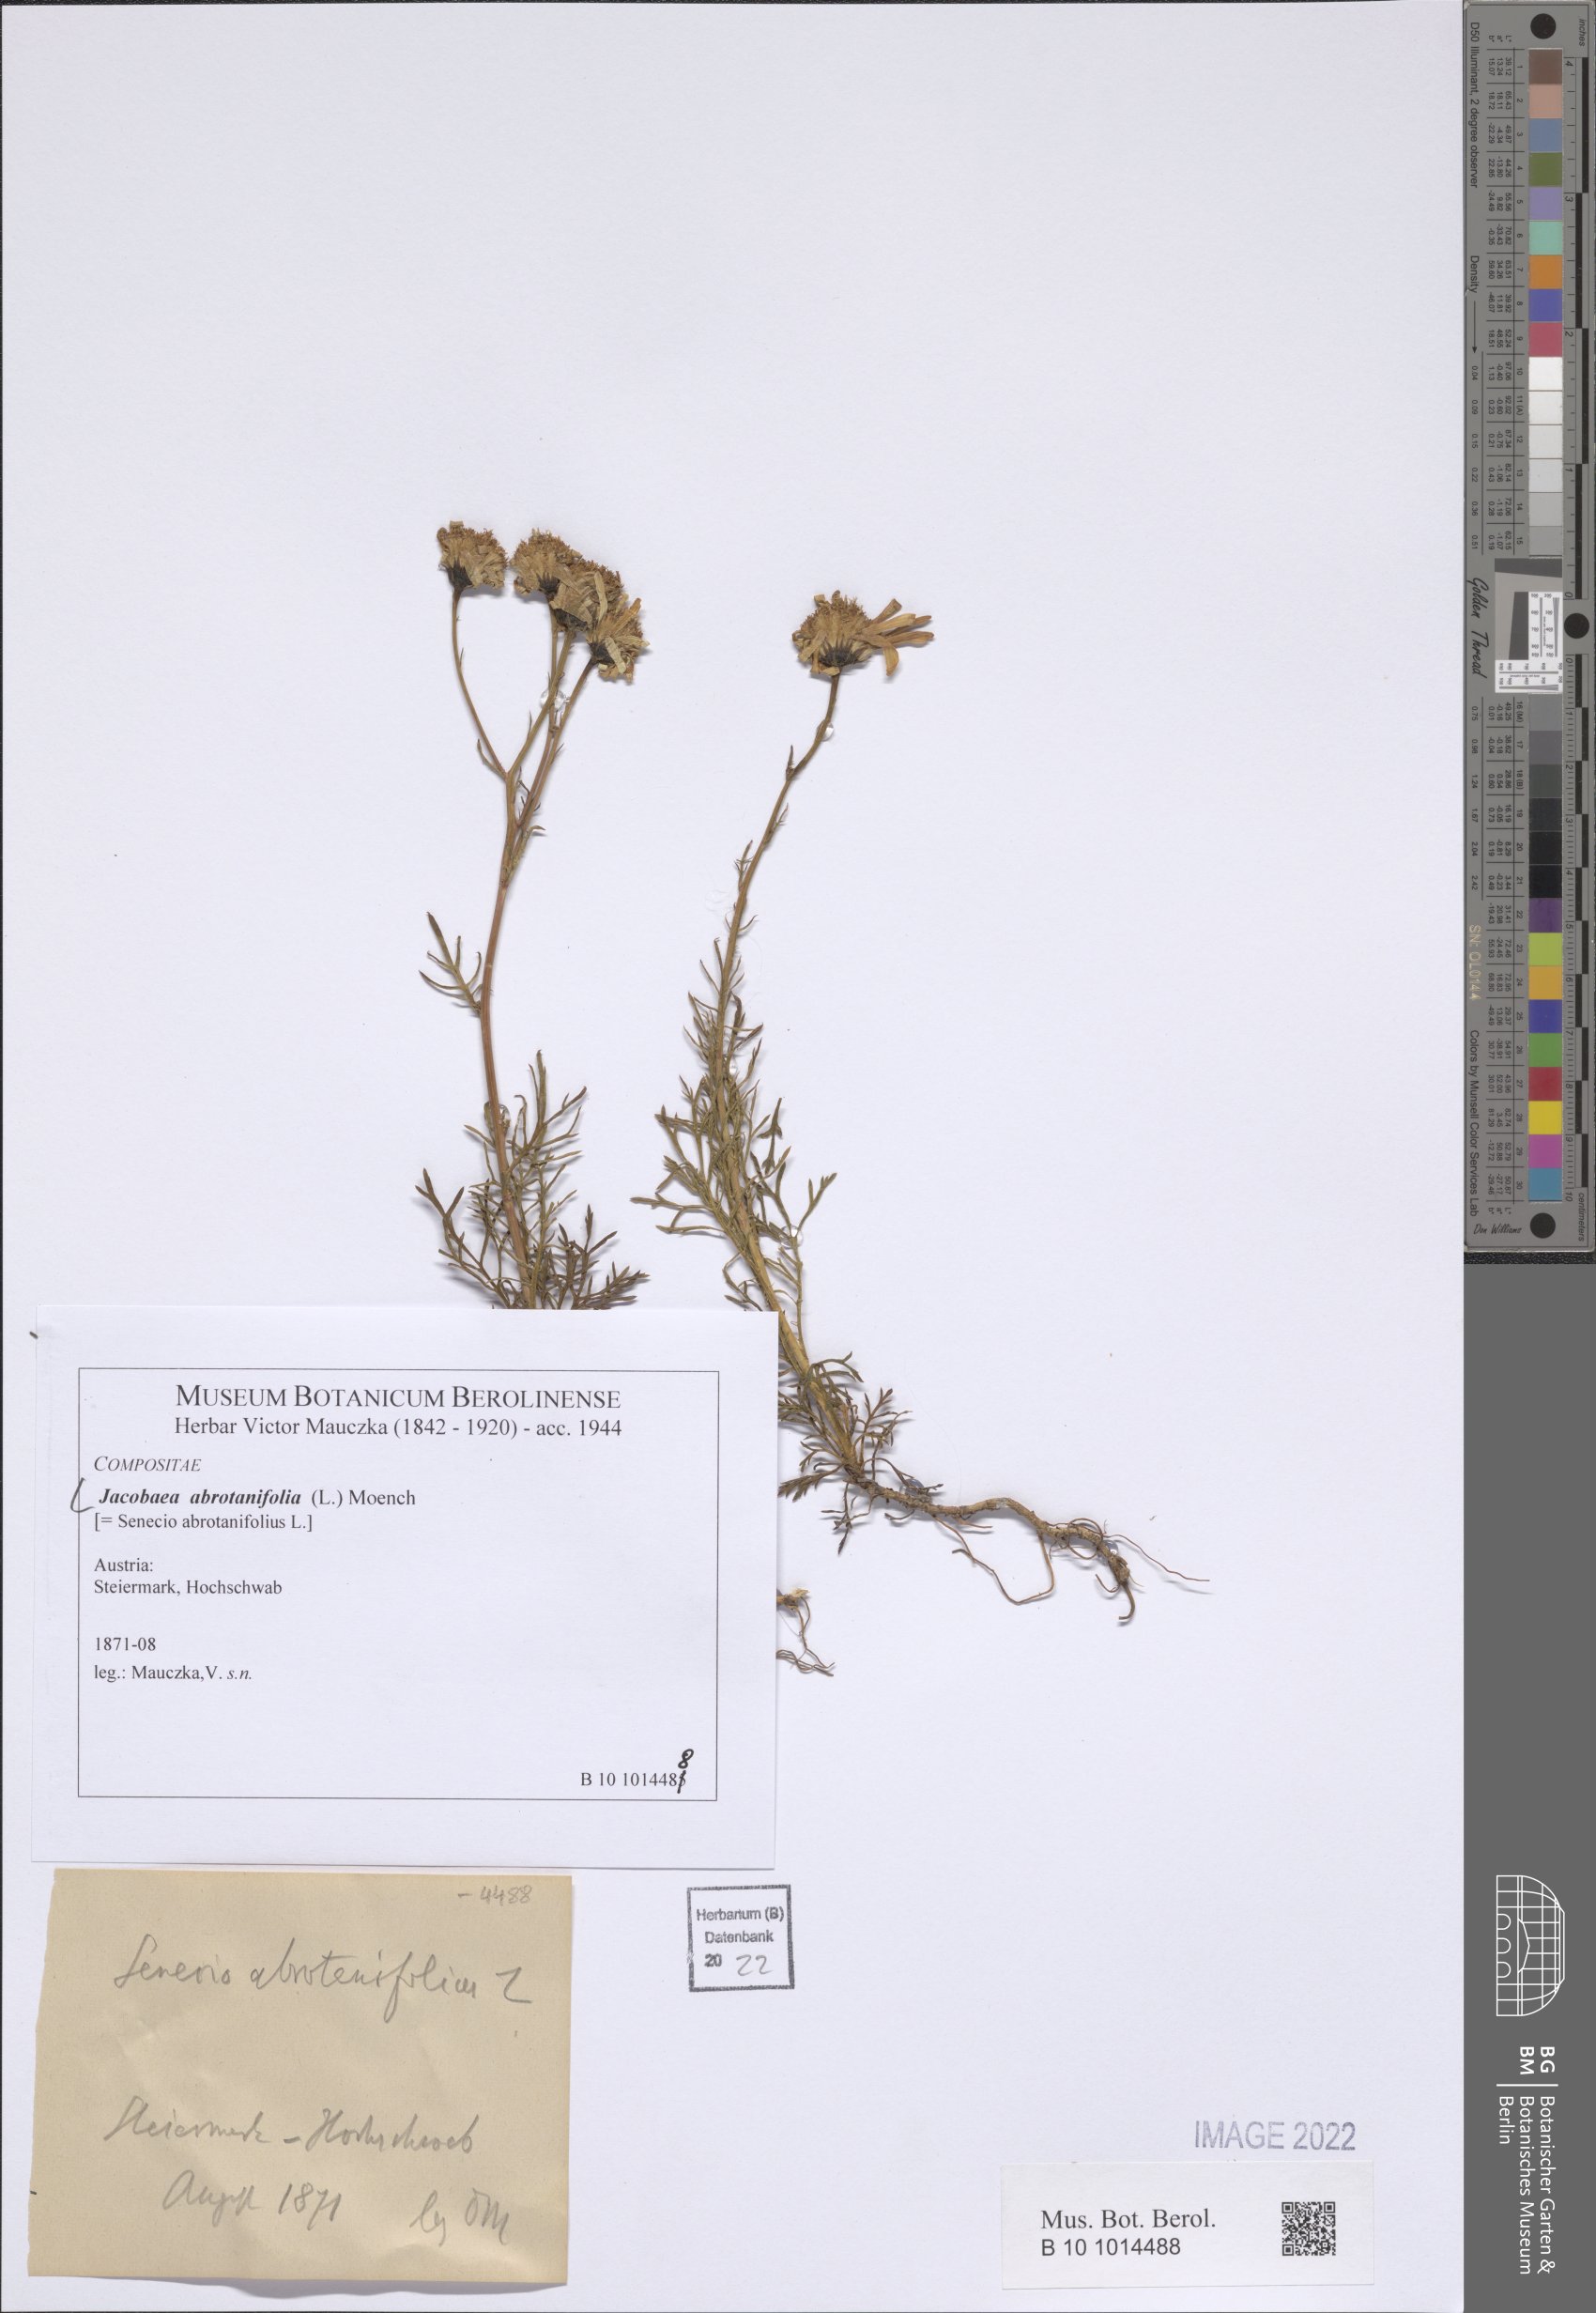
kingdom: Plantae
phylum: Tracheophyta
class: Magnoliopsida
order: Asterales
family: Asteraceae
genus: Jacobaea
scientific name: Jacobaea abrotanifolia
